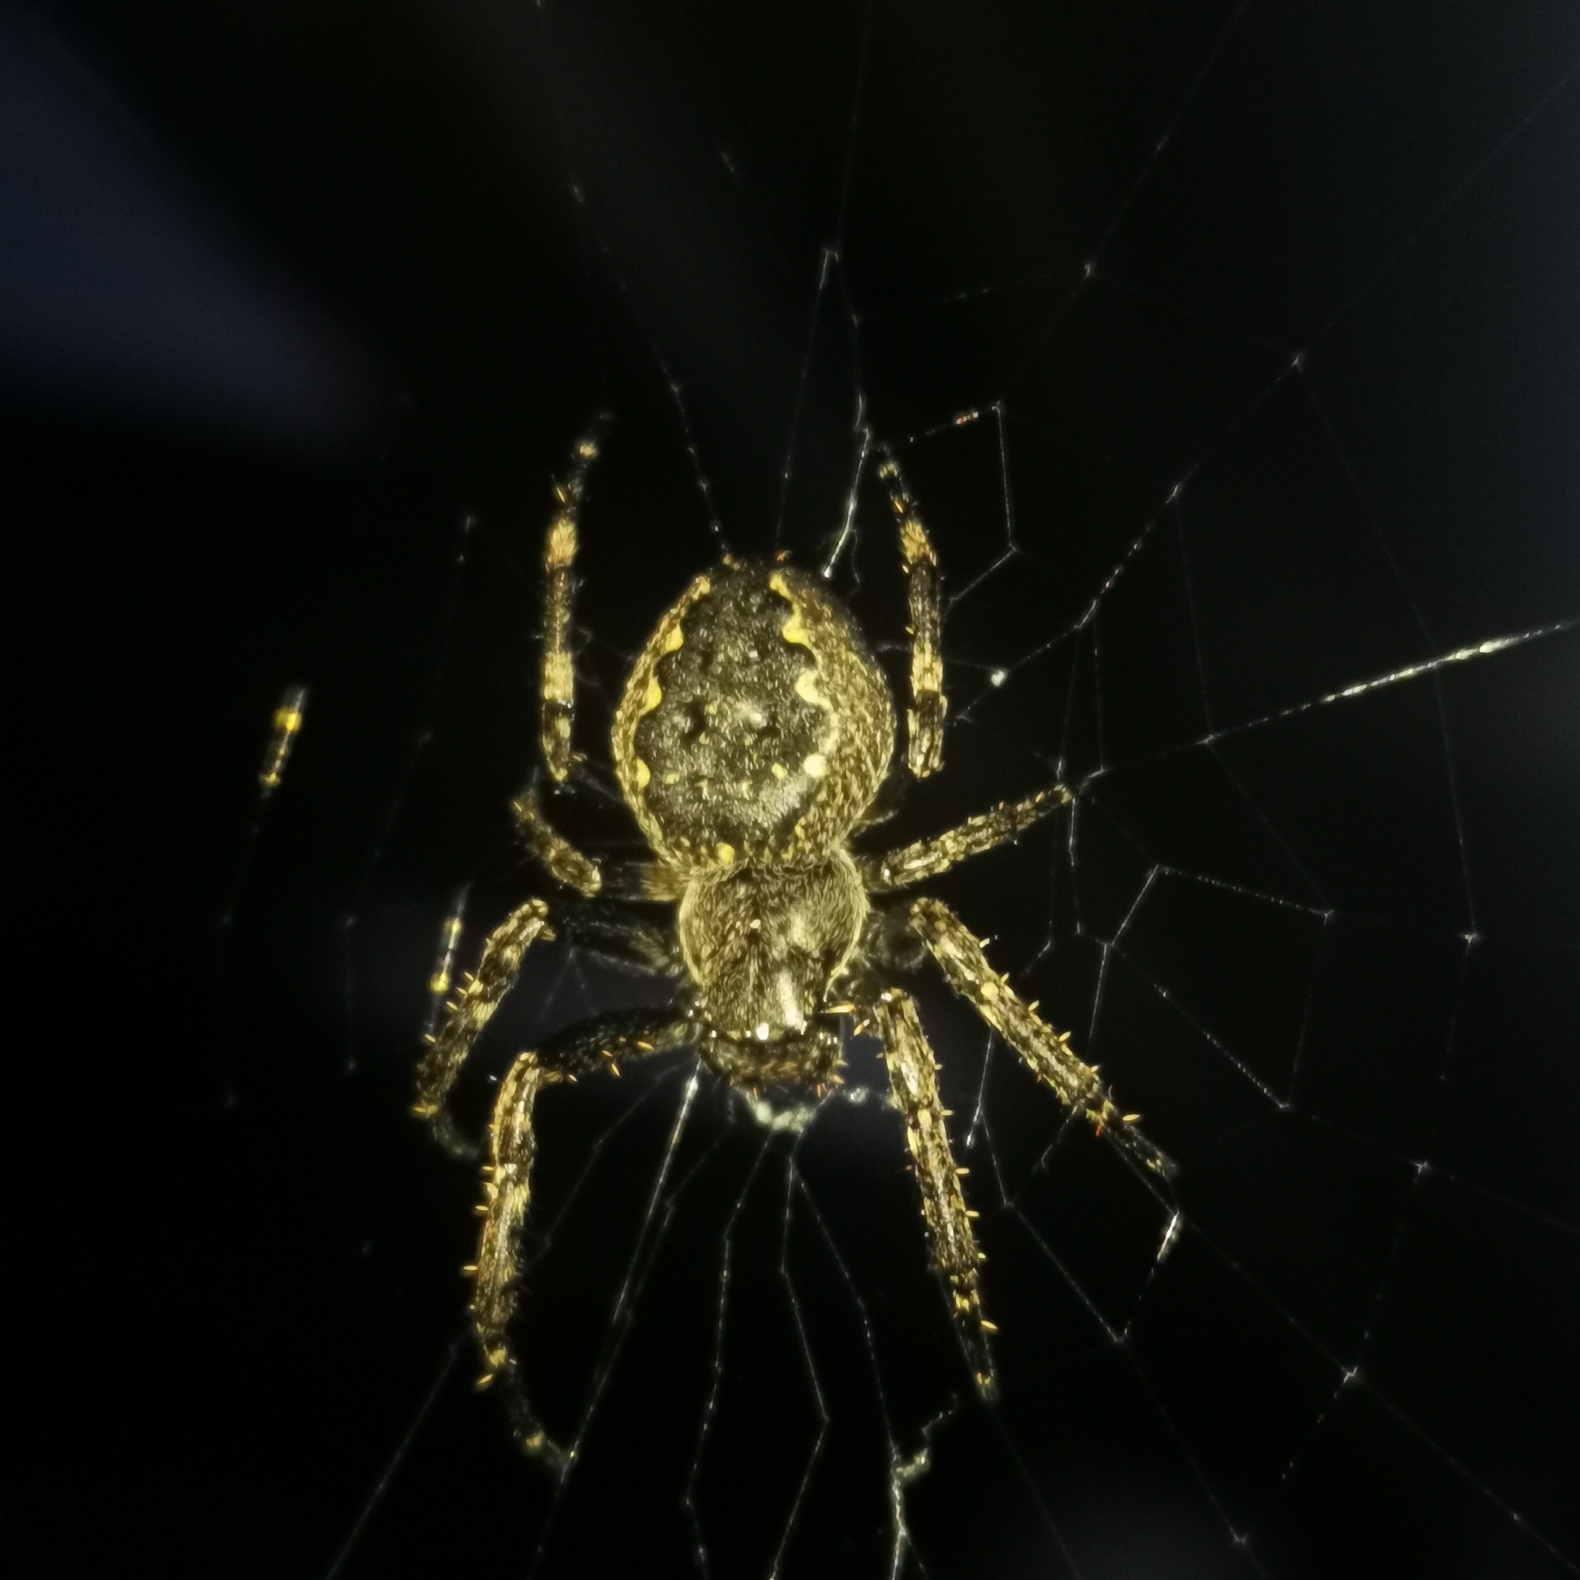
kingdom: Animalia
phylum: Arthropoda
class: Arachnida
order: Araneae
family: Araneidae
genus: Nuctenea
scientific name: Nuctenea umbratica
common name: Flad hjulspinder
